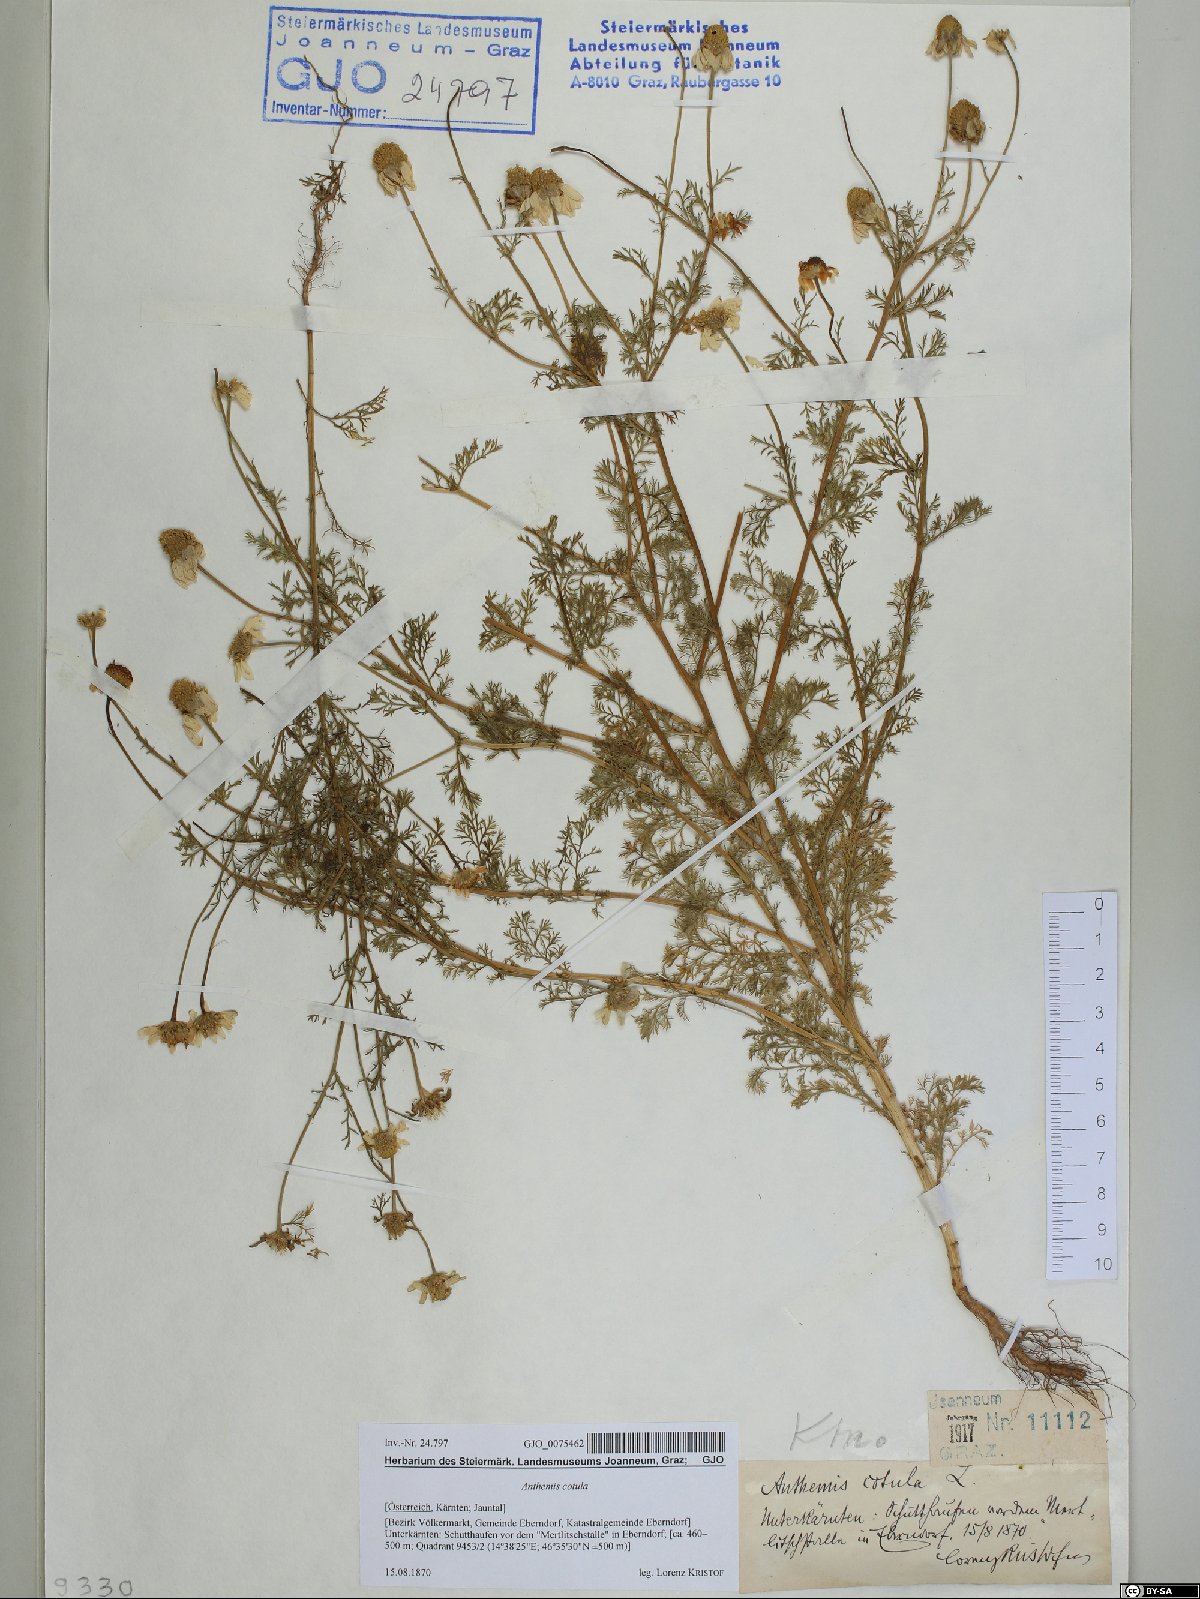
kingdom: Plantae
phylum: Tracheophyta
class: Magnoliopsida
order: Asterales
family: Asteraceae
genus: Anthemis
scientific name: Anthemis cotula
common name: Stinking chamomile
